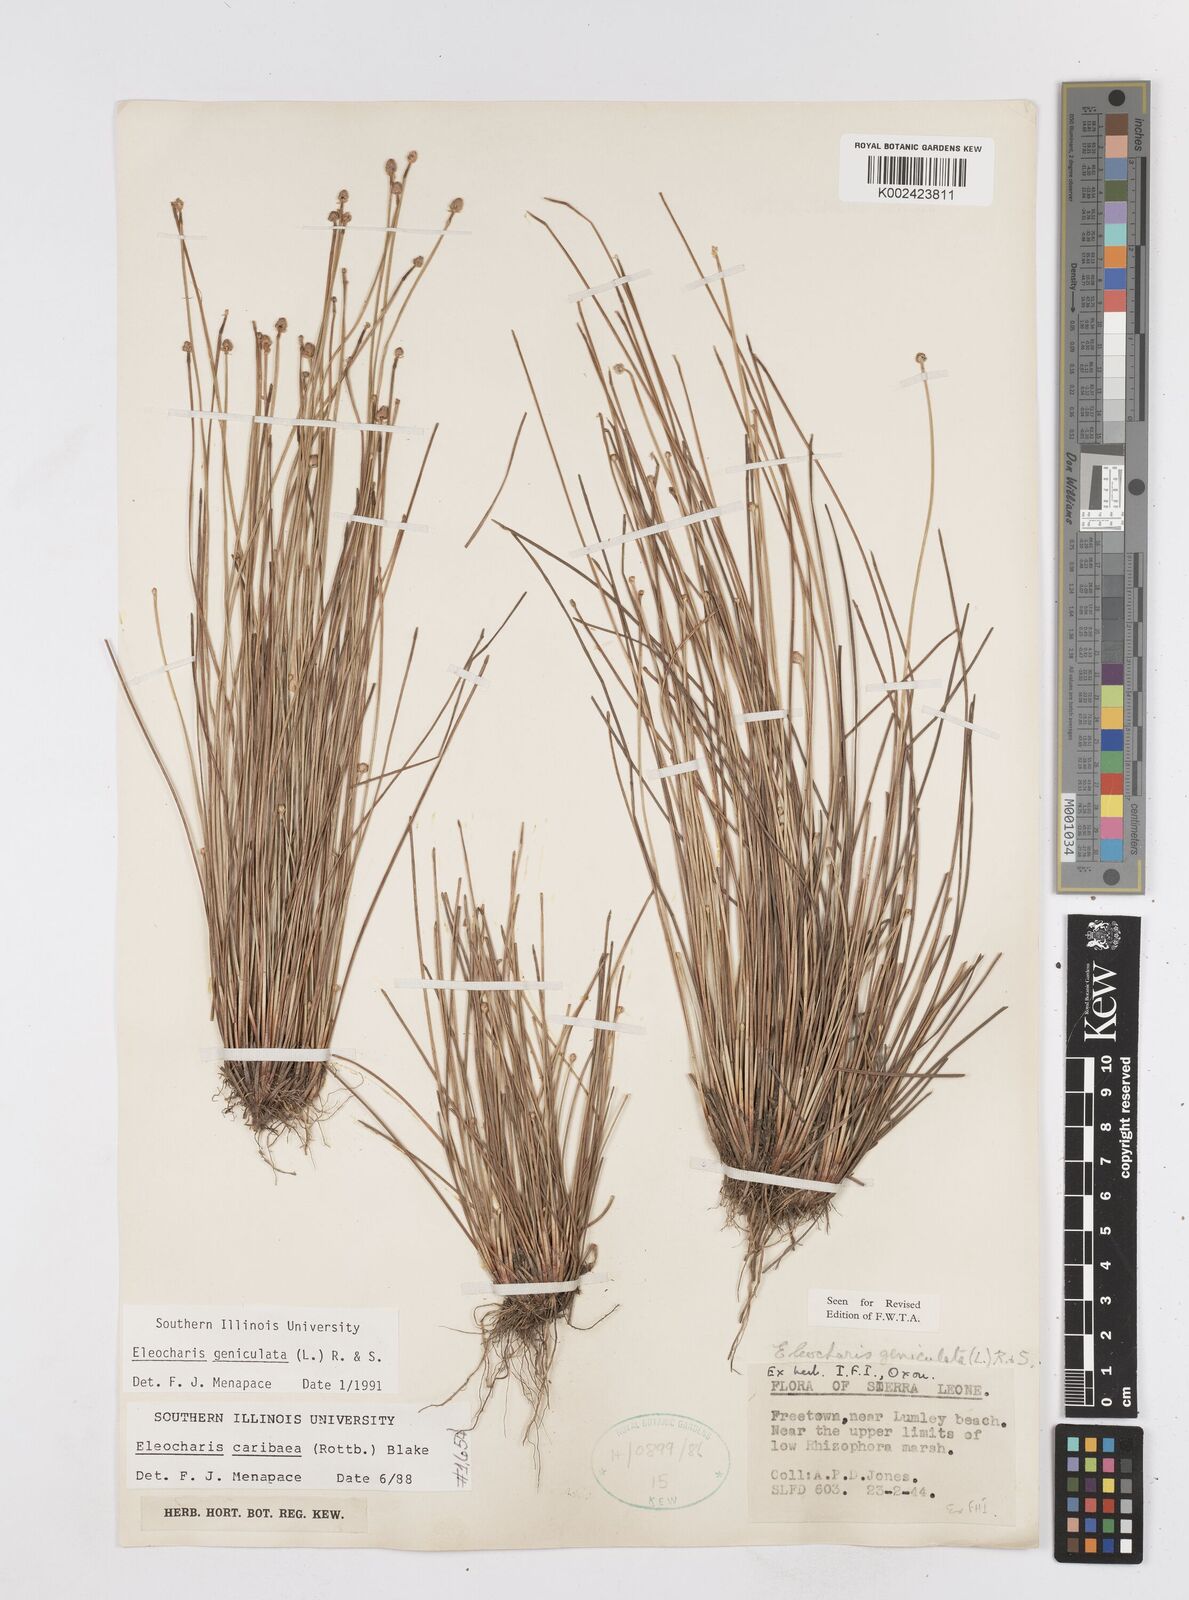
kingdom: Plantae
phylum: Tracheophyta
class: Liliopsida
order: Poales
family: Cyperaceae
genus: Eleocharis
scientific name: Eleocharis geniculata
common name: Canada spikesedge
